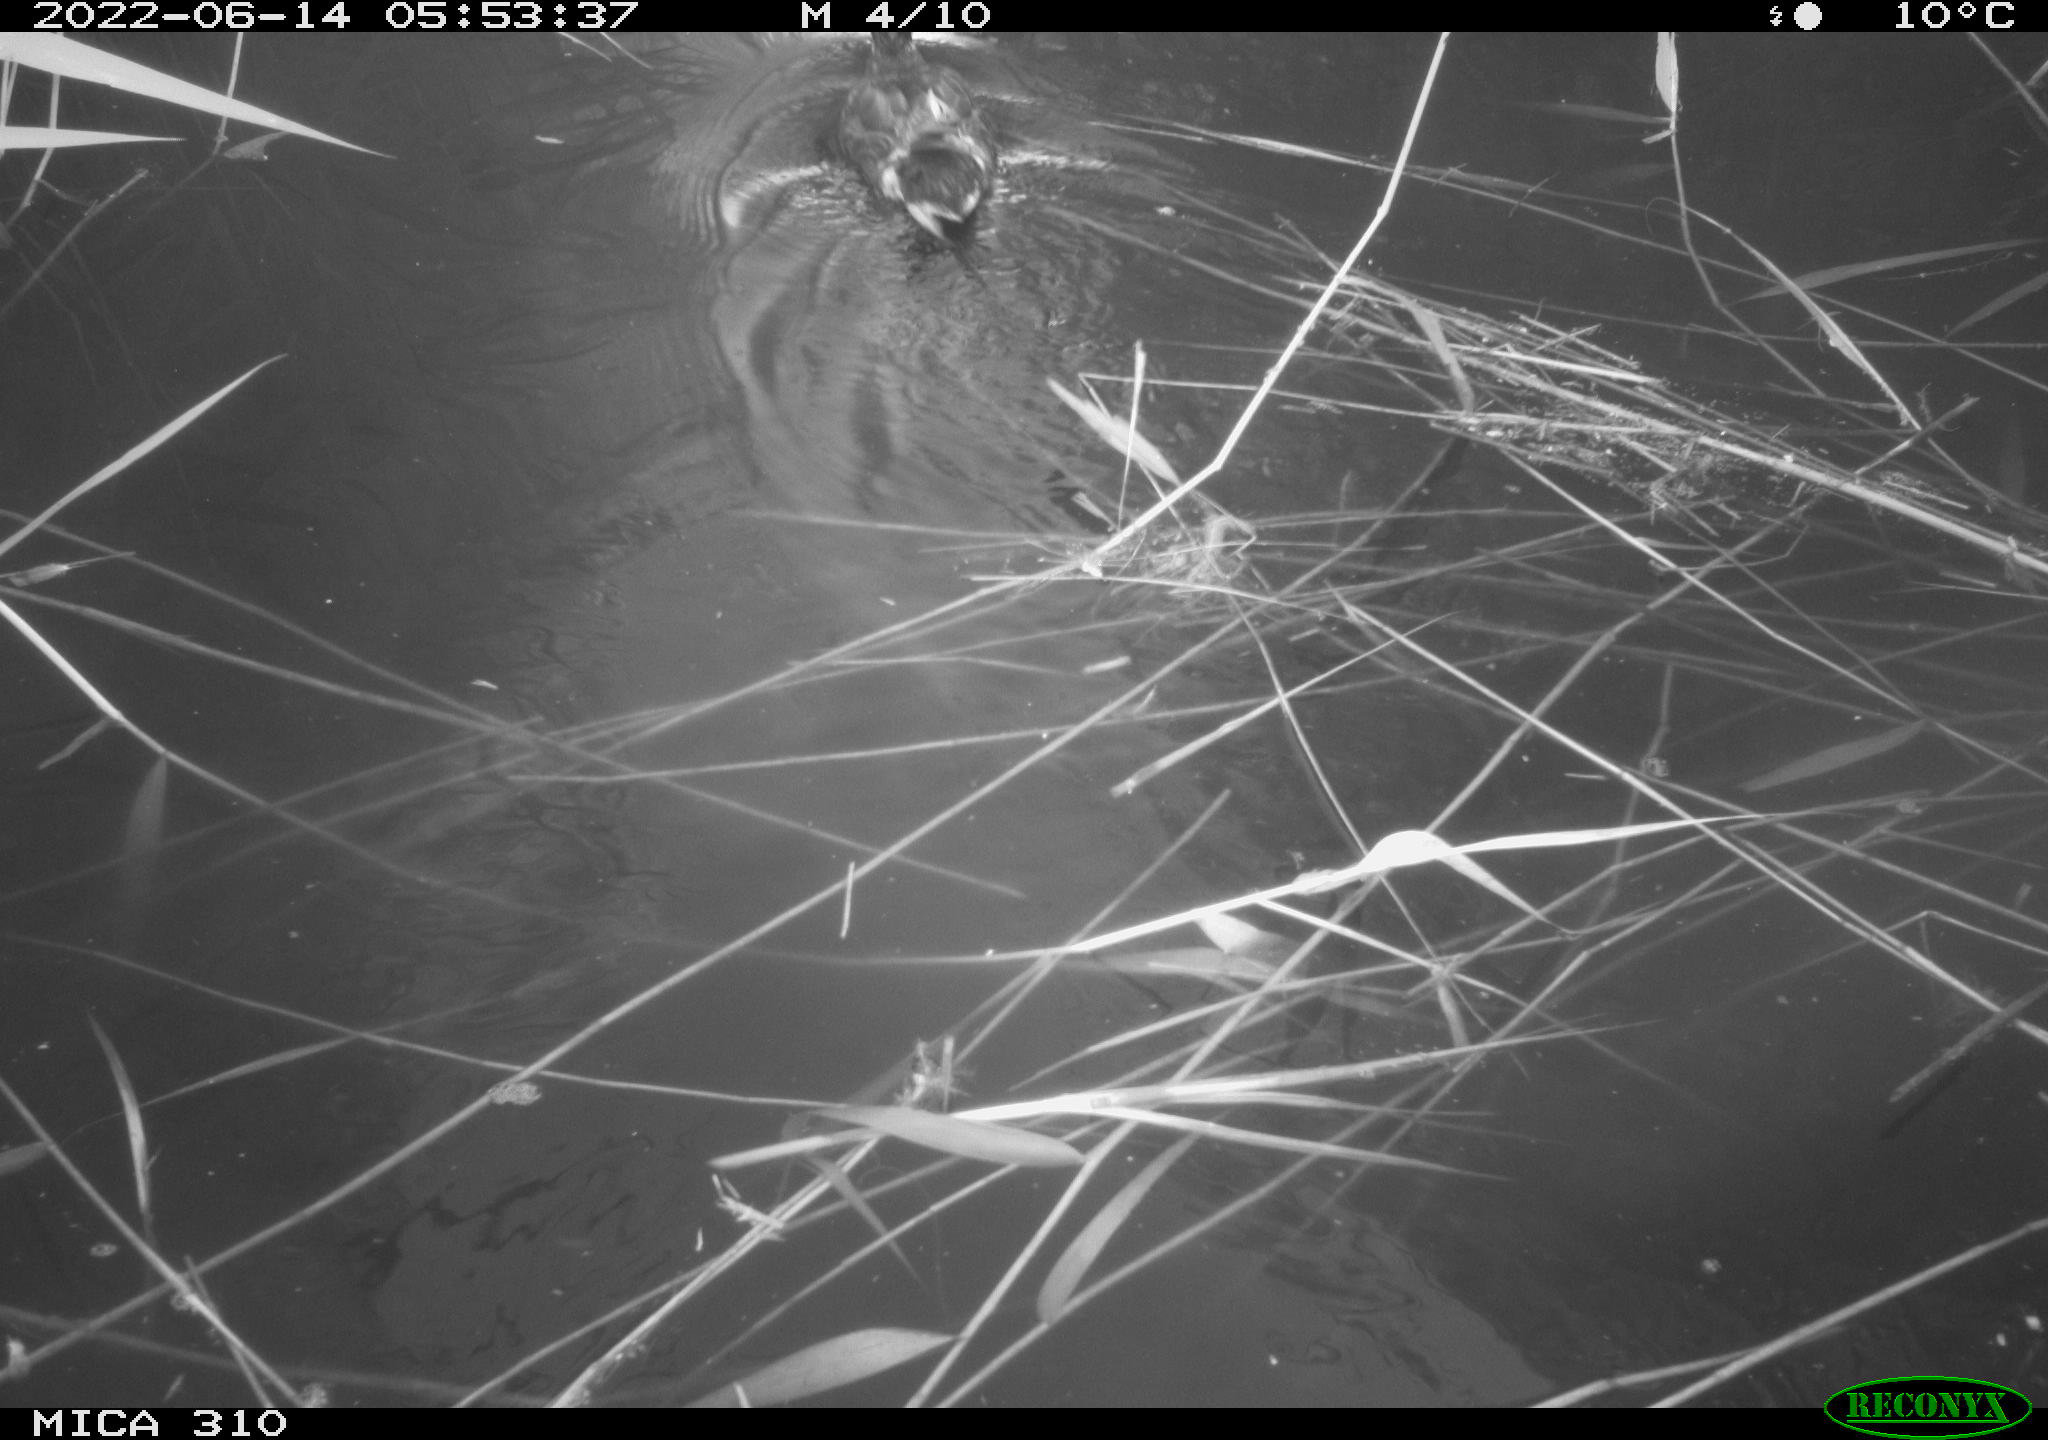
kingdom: Animalia
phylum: Chordata
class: Aves
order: Anseriformes
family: Anatidae
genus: Anas
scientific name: Anas platyrhynchos
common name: Mallard
